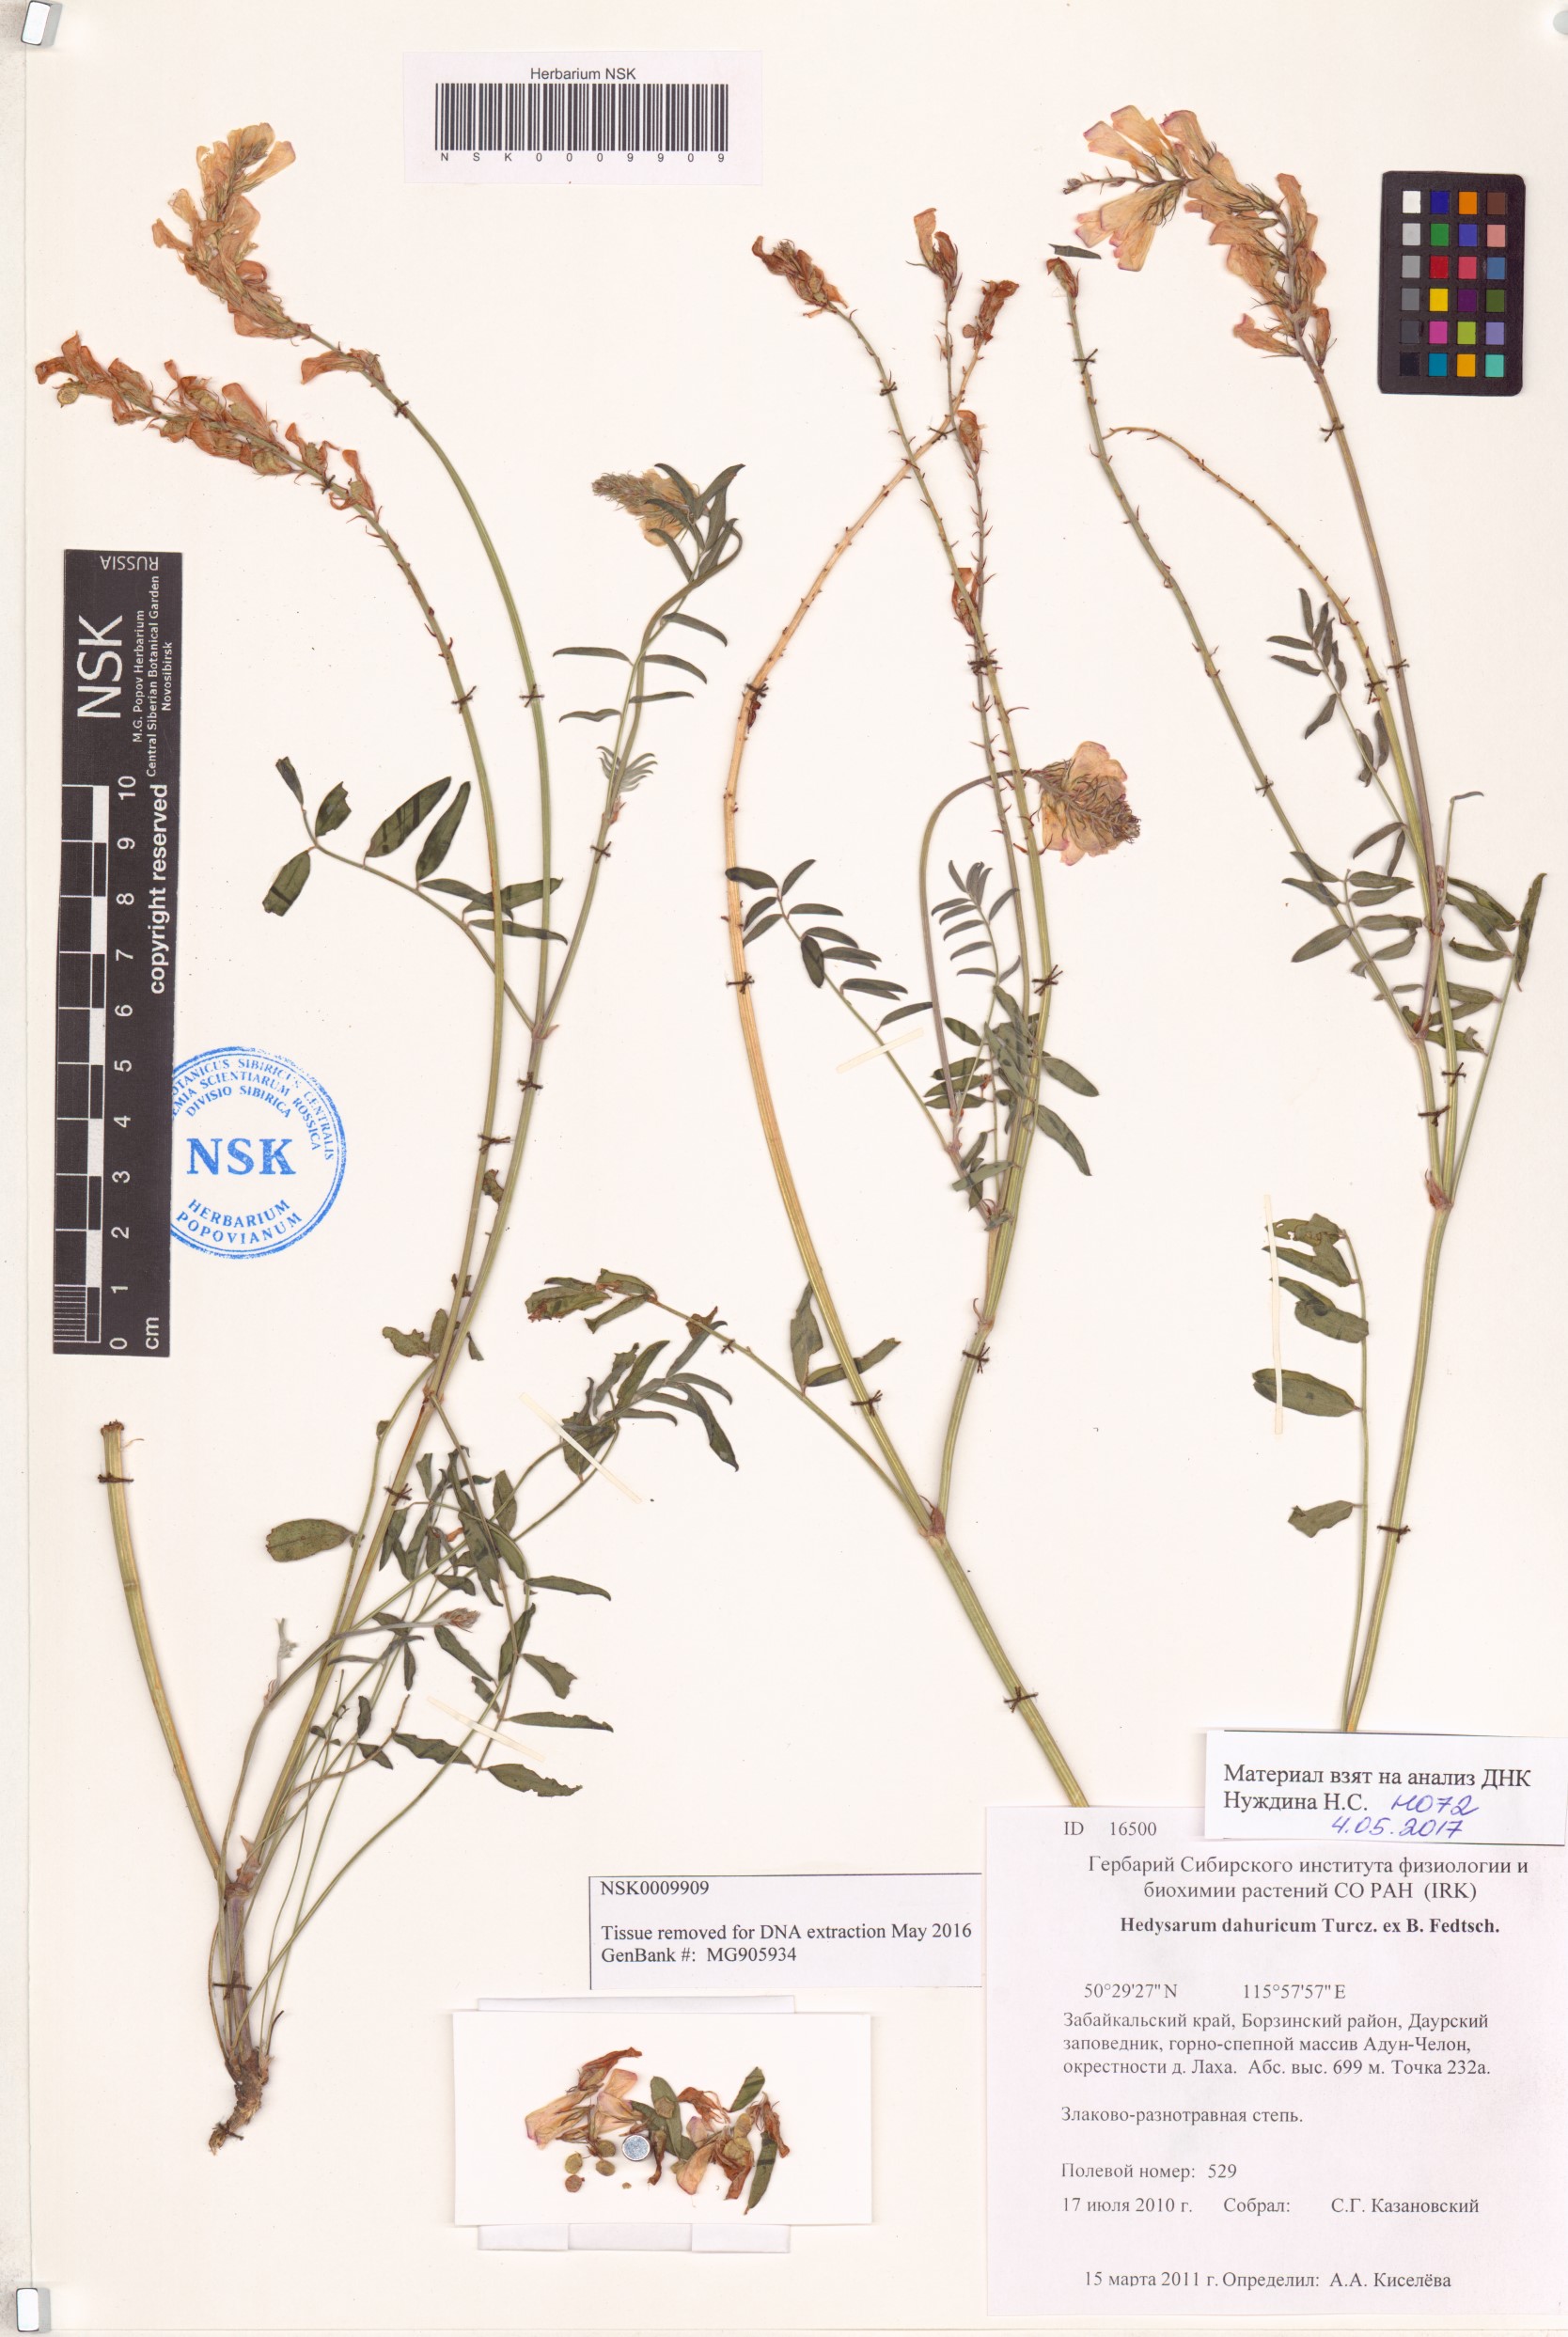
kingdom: Plantae
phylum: Tracheophyta
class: Magnoliopsida
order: Fabales
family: Fabaceae
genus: Hedysarum
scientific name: Hedysarum dahuricum
